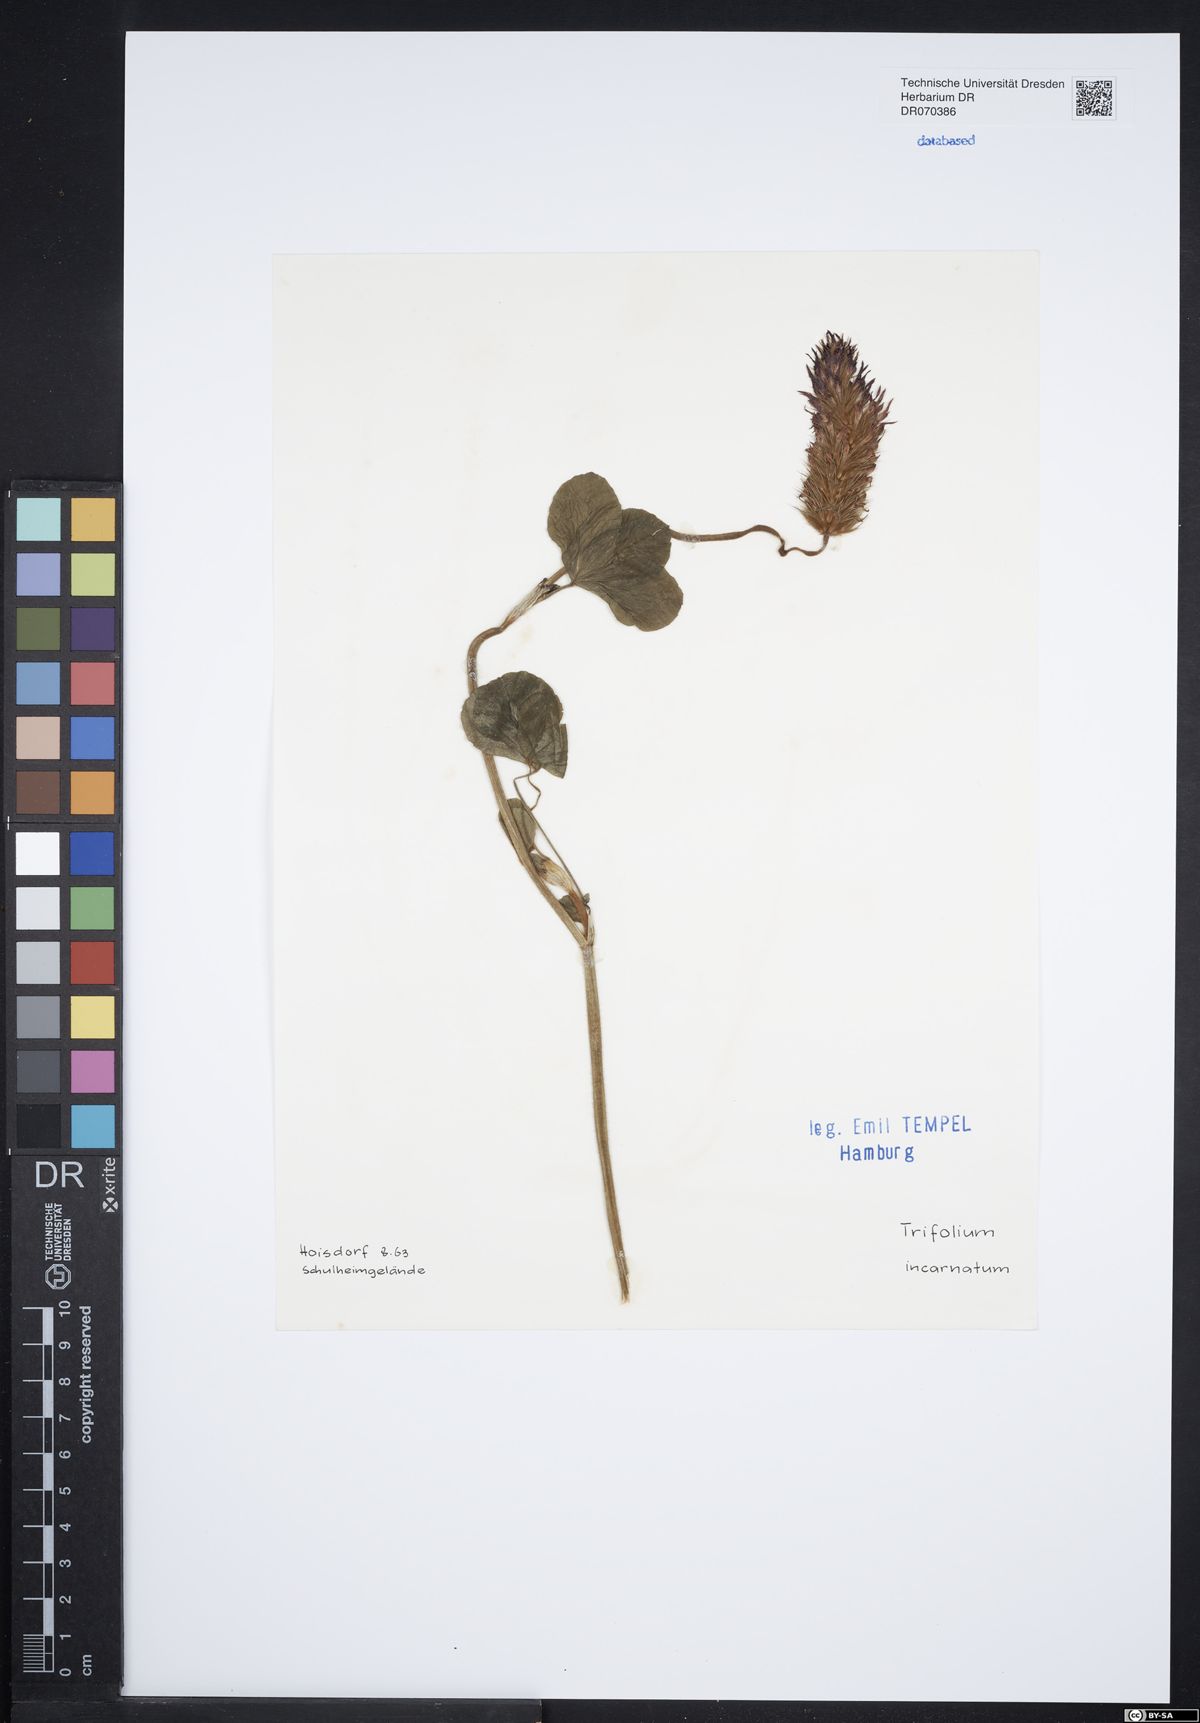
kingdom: Plantae
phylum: Tracheophyta
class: Magnoliopsida
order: Fabales
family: Fabaceae
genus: Trifolium
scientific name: Trifolium incarnatum
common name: Crimson clover
